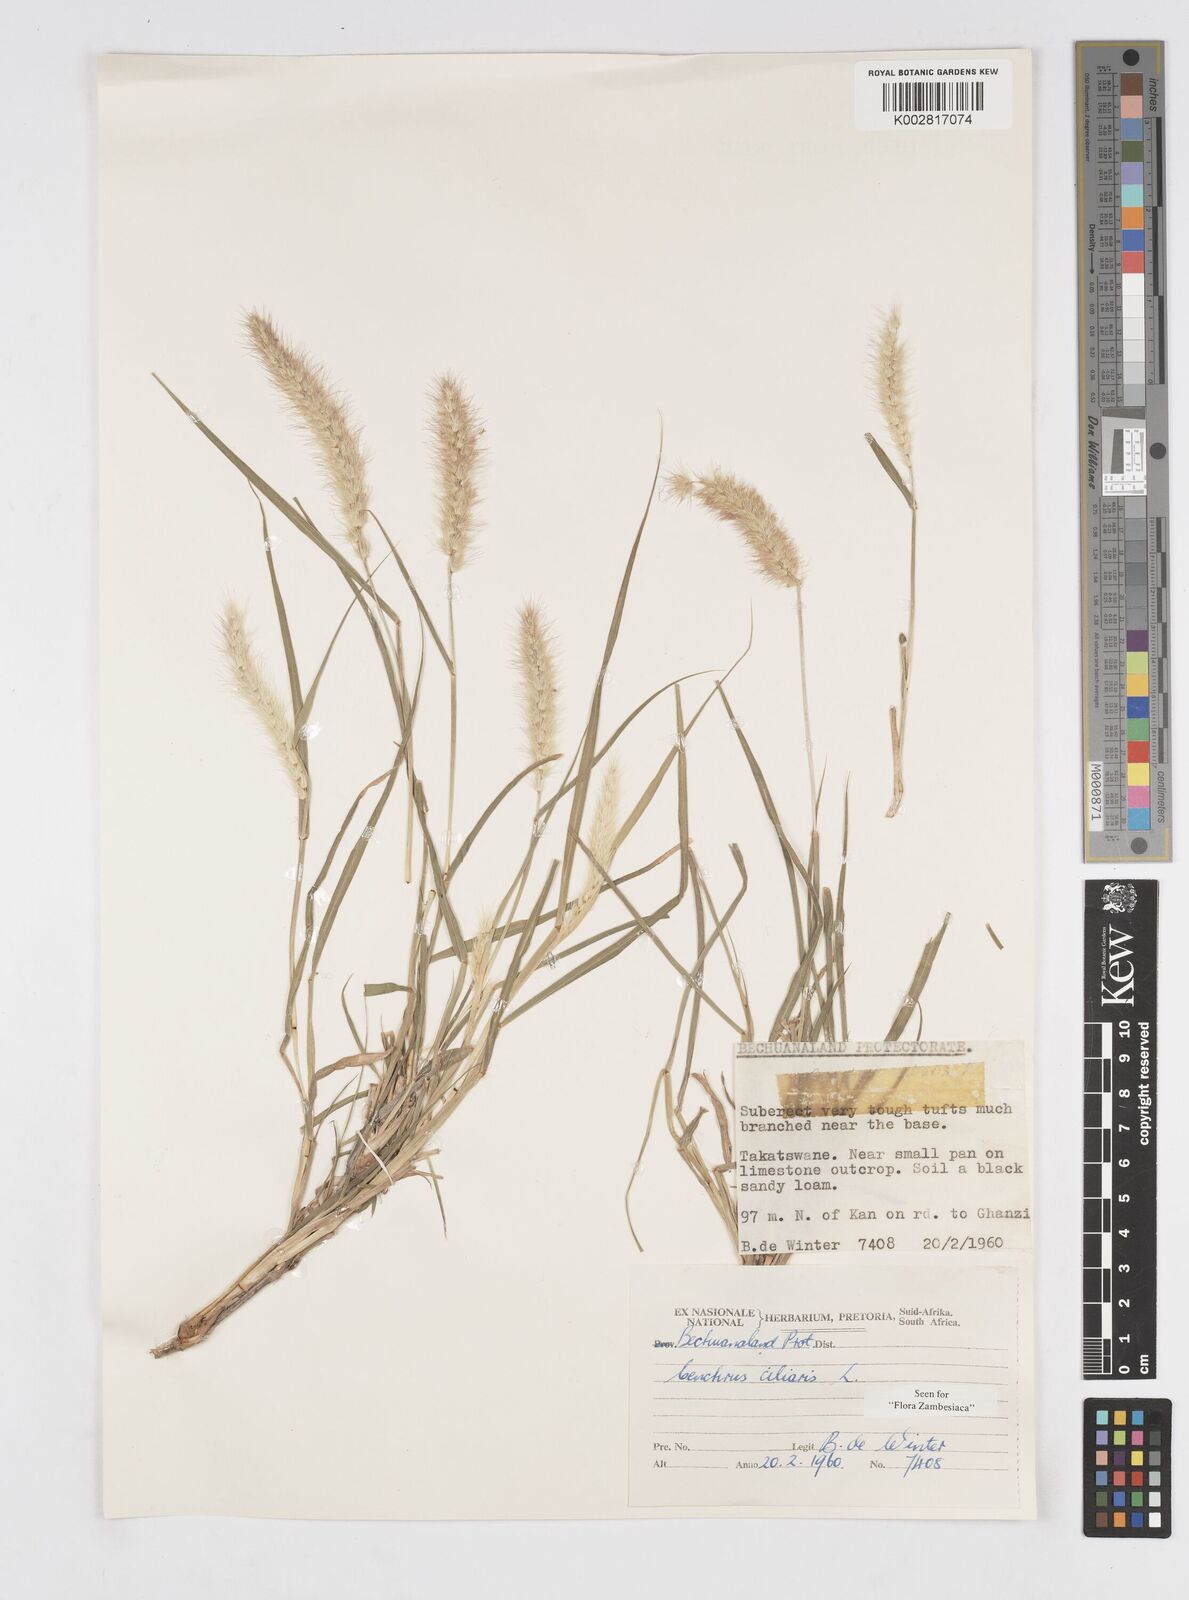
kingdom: Plantae
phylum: Tracheophyta
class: Liliopsida
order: Poales
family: Poaceae
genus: Cenchrus
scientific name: Cenchrus ciliaris
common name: Buffelgrass
